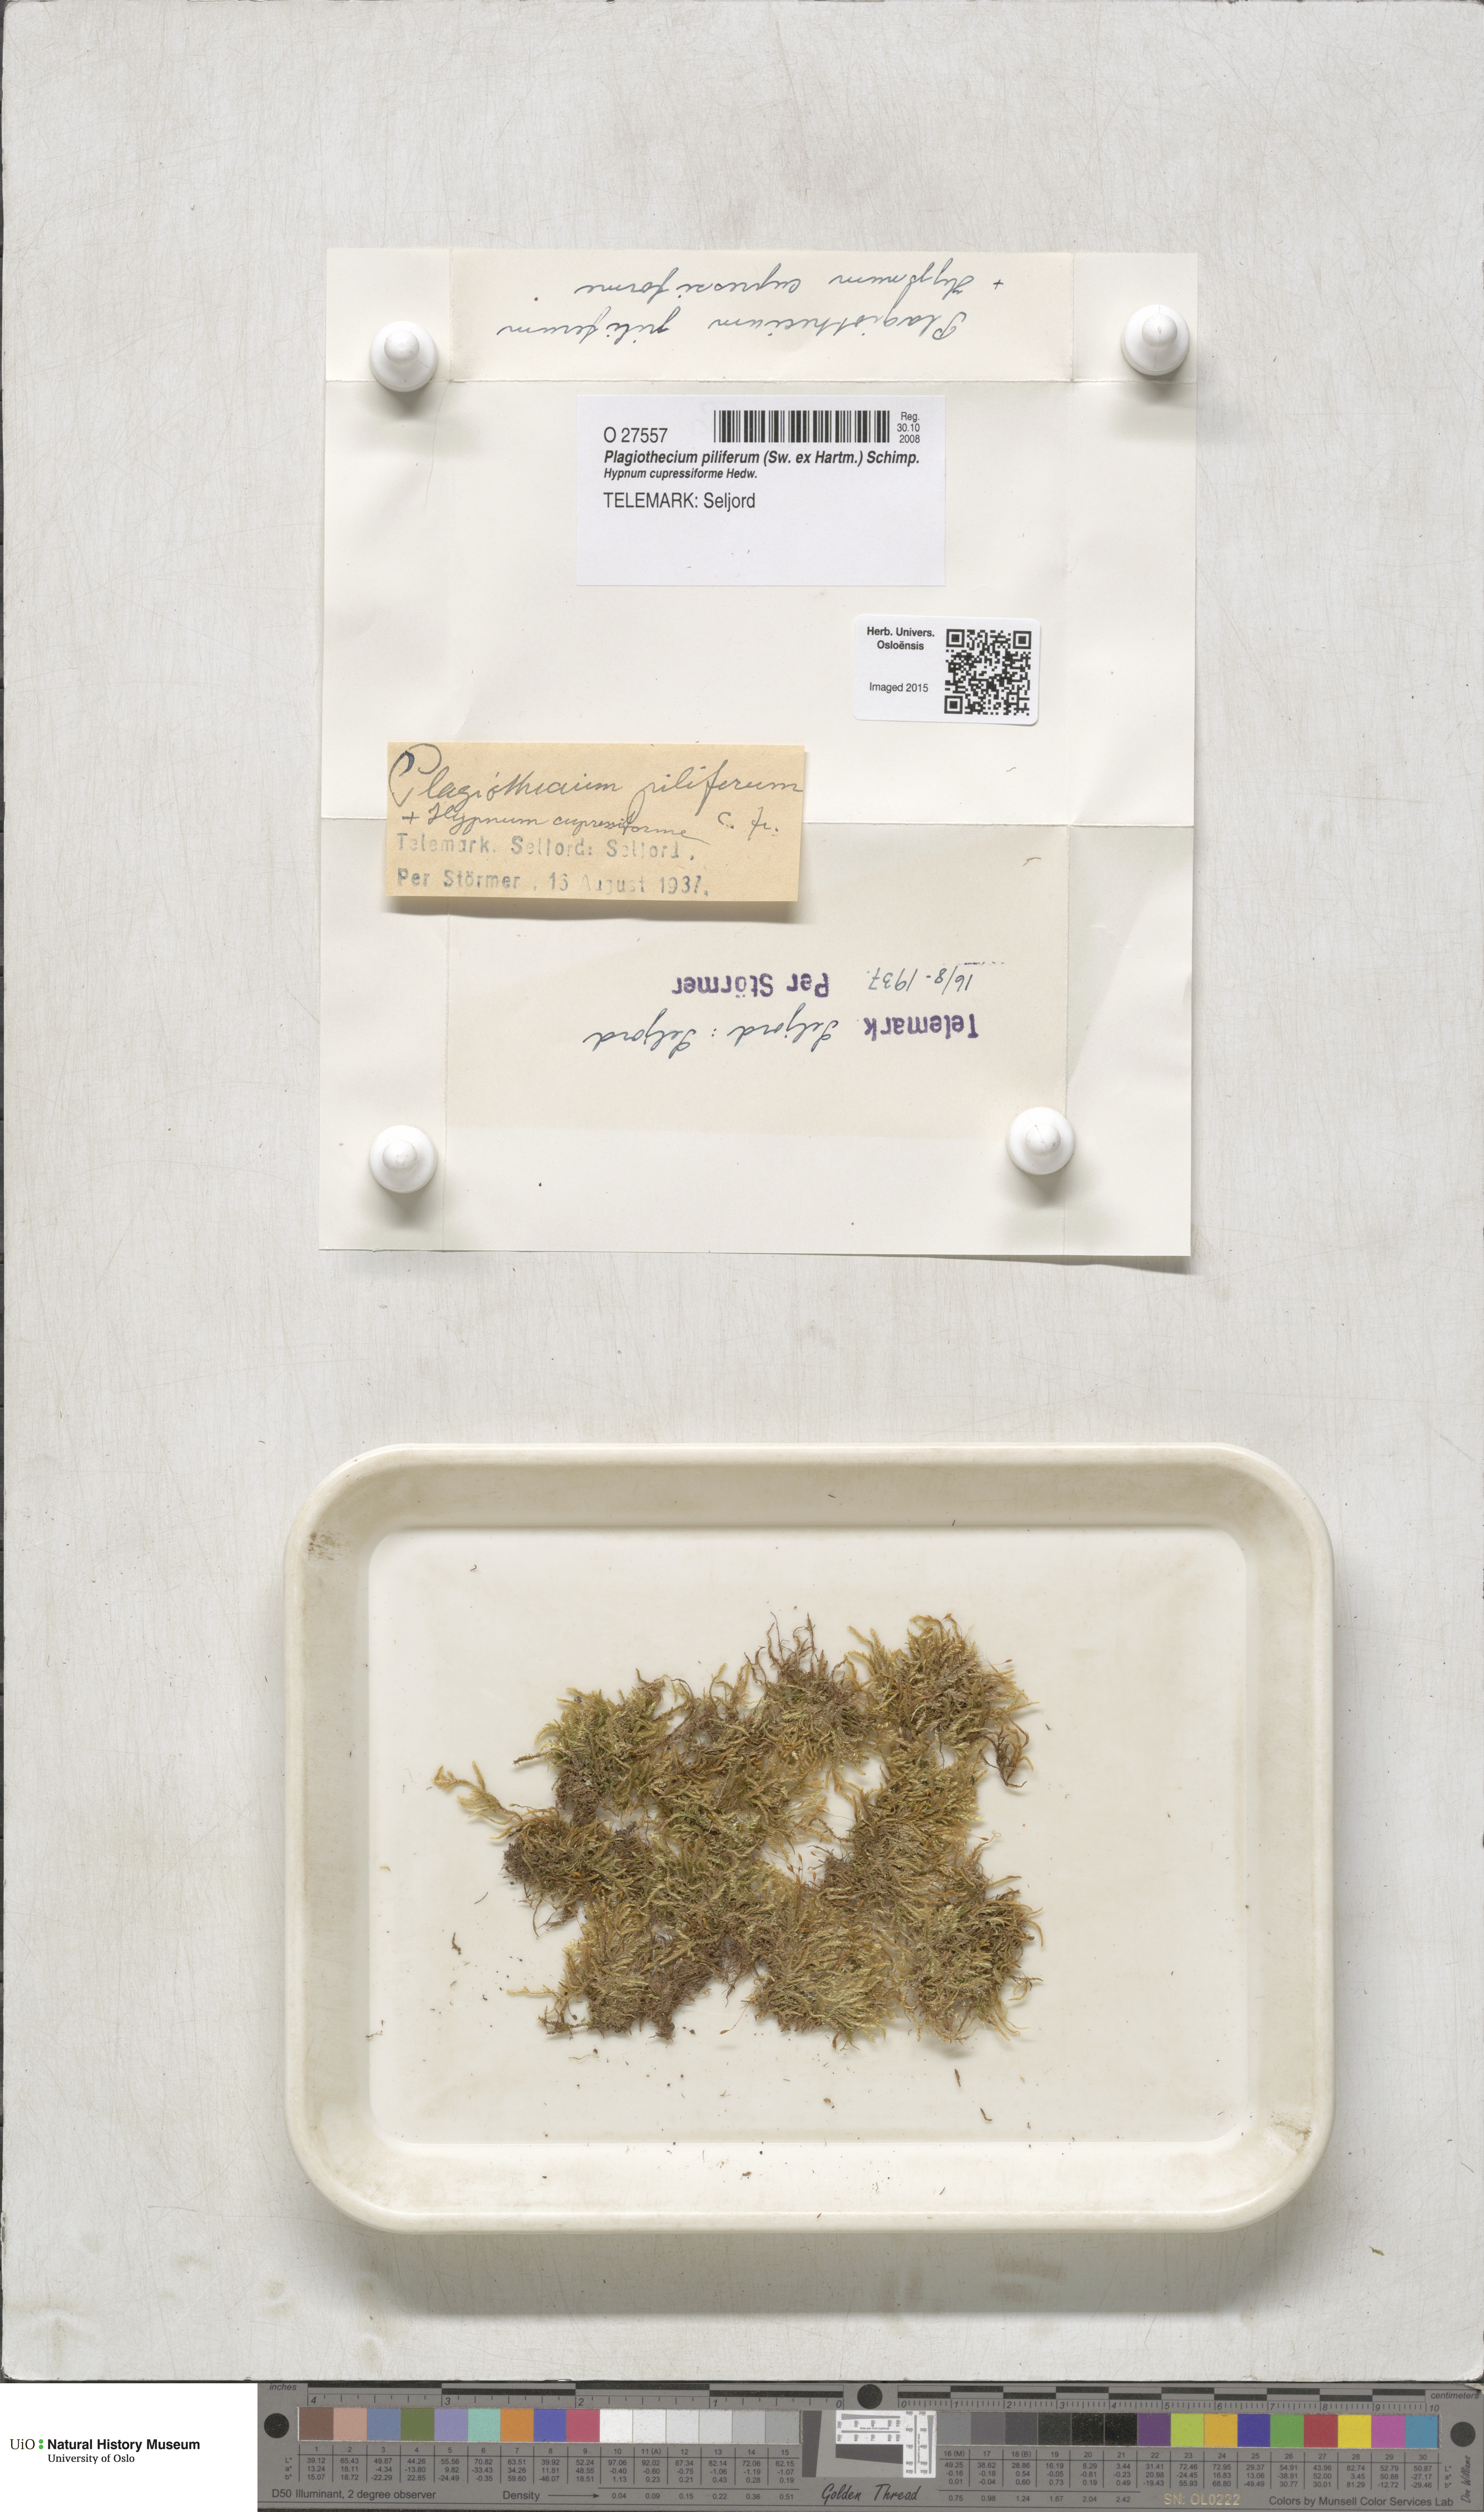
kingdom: Plantae
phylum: Bryophyta
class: Bryopsida
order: Hypnales
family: Plagiotheciaceae
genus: Rectithecium
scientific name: Rectithecium piliferum
